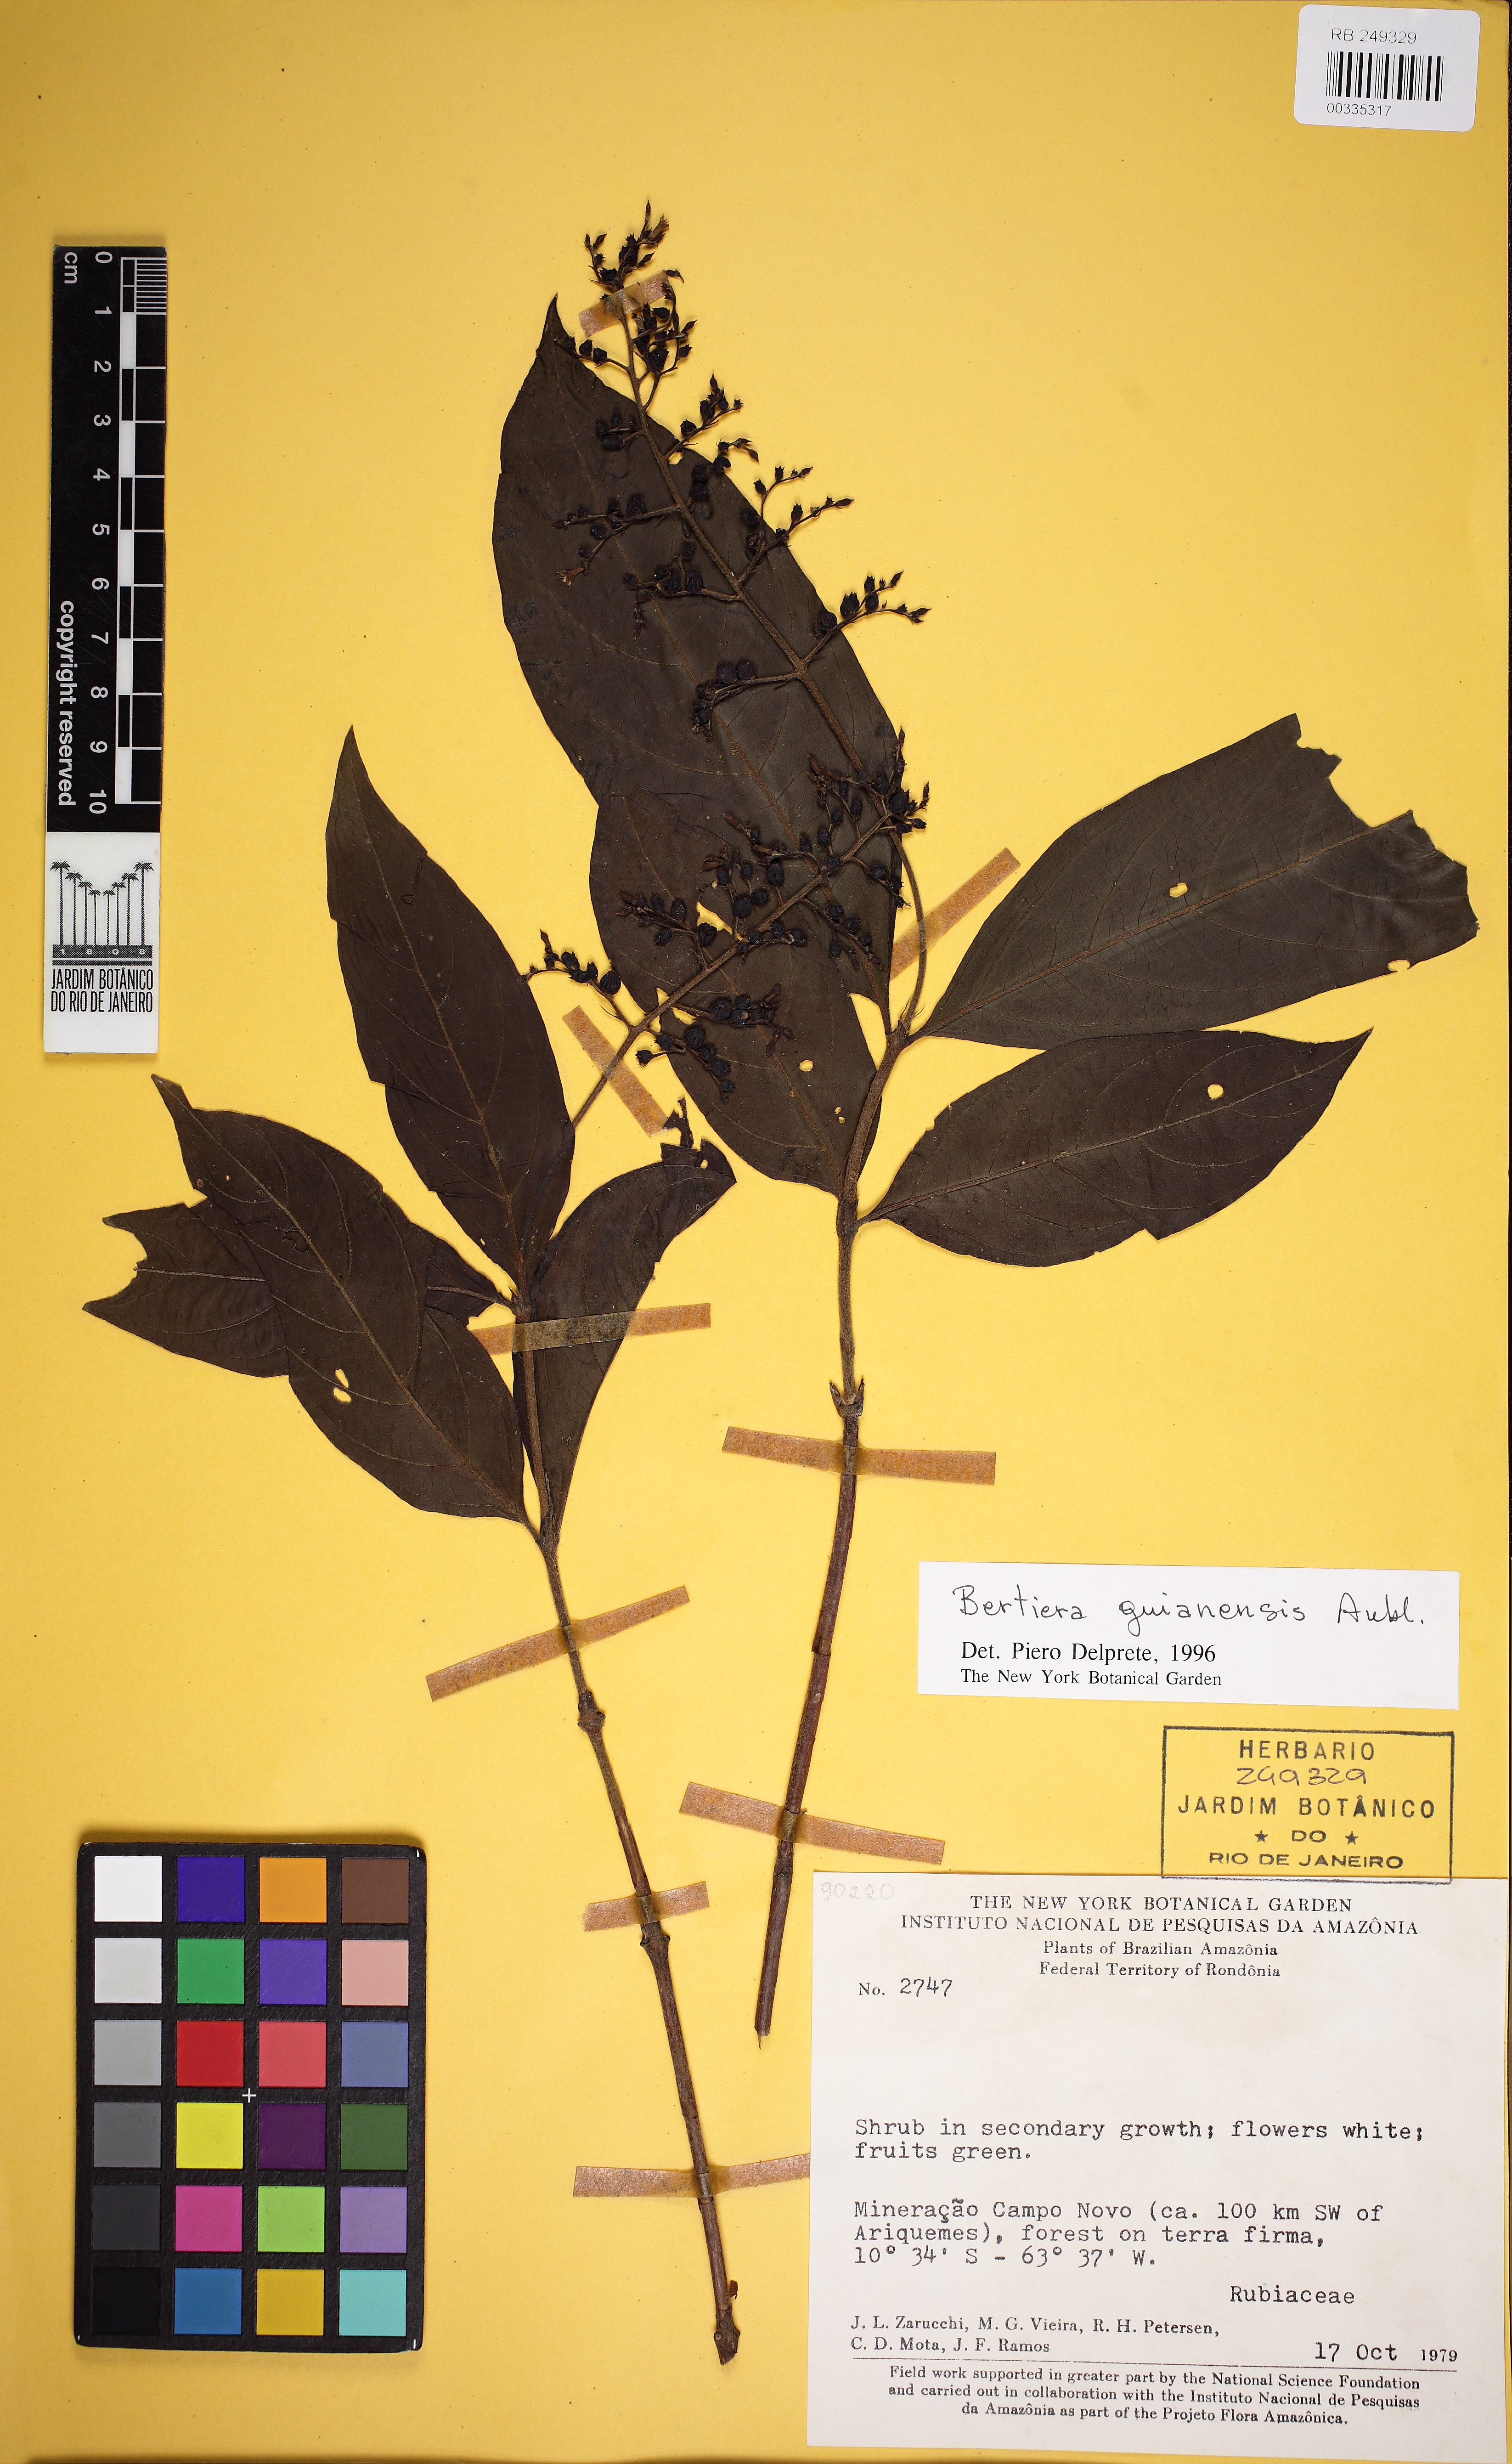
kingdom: Plantae
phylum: Tracheophyta
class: Magnoliopsida
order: Gentianales
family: Rubiaceae
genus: Bertiera
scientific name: Bertiera guianensis
